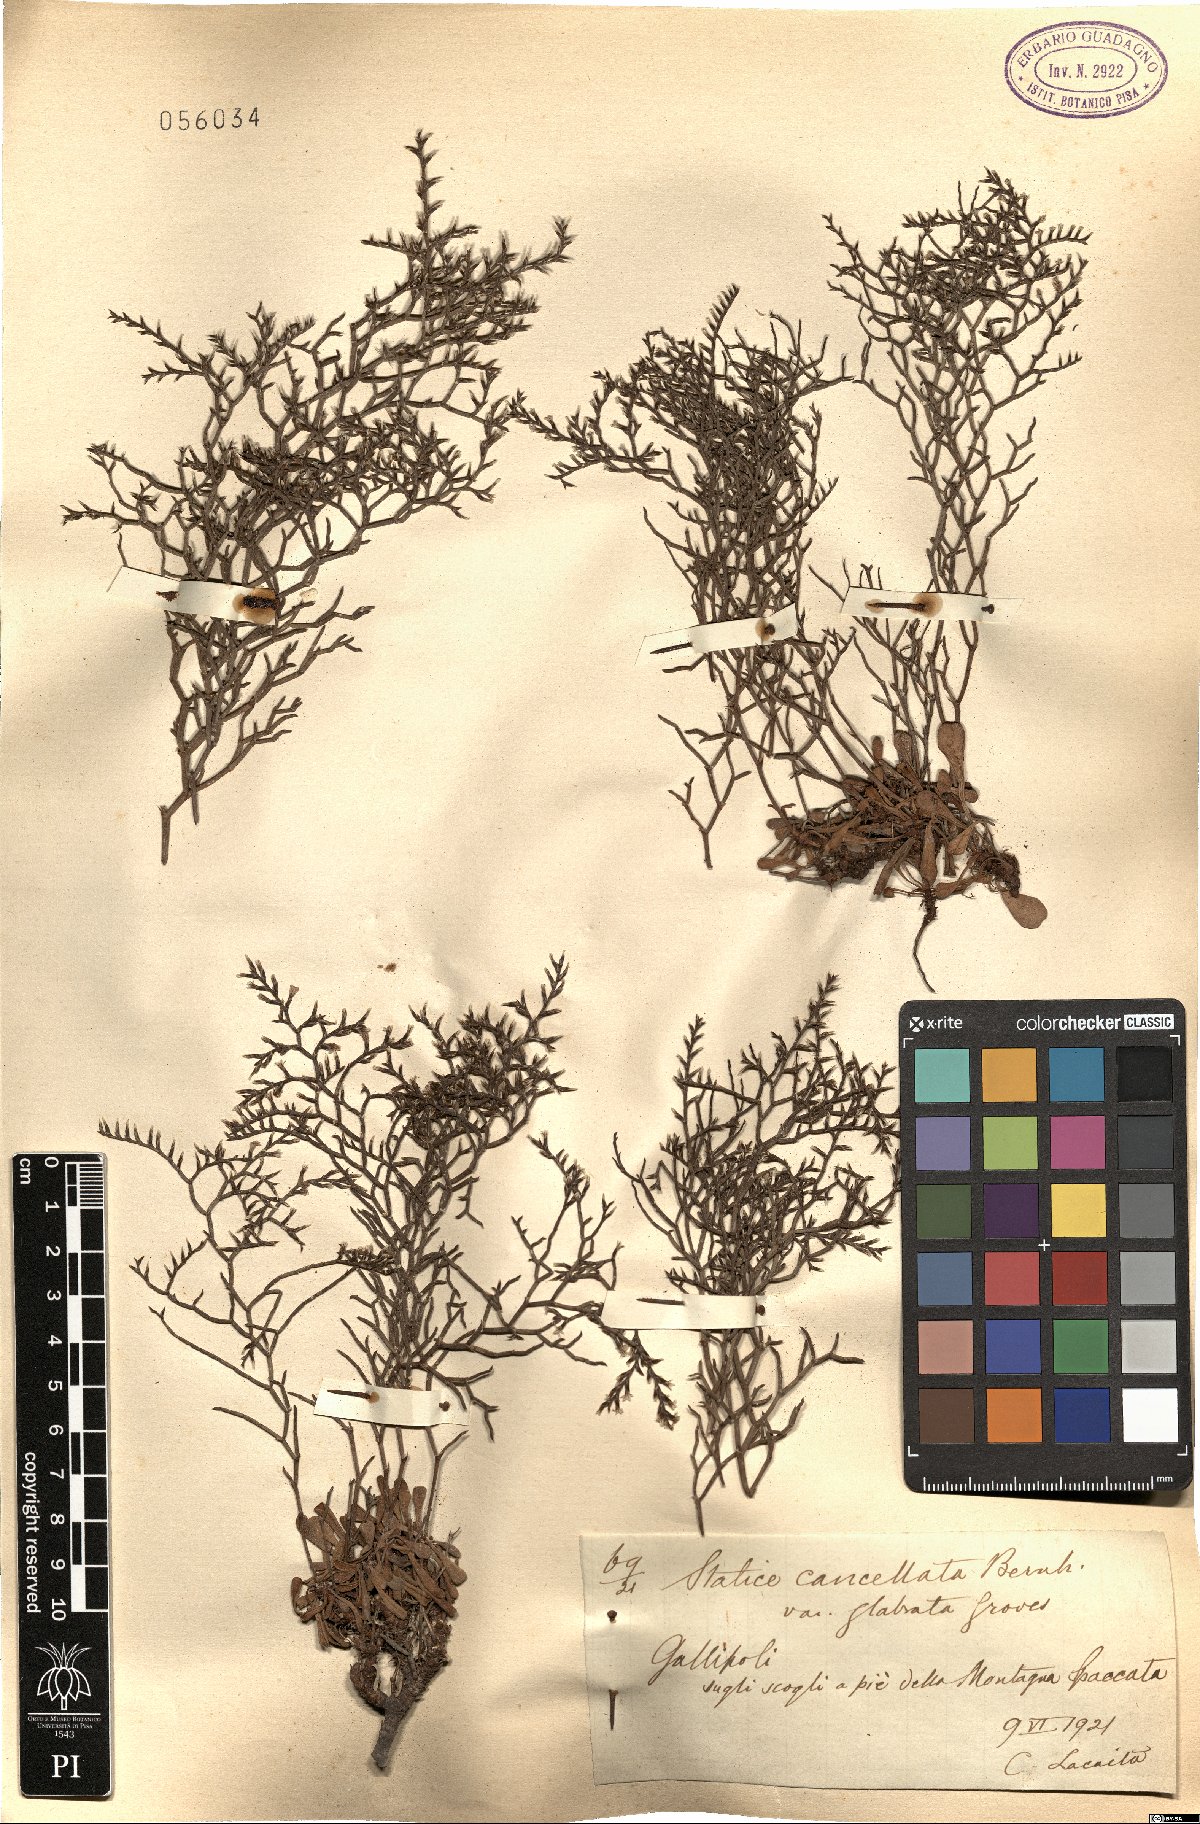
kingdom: Plantae
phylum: Tracheophyta
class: Magnoliopsida
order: Caryophyllales
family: Plumbaginaceae
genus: Limonium
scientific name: Limonium
